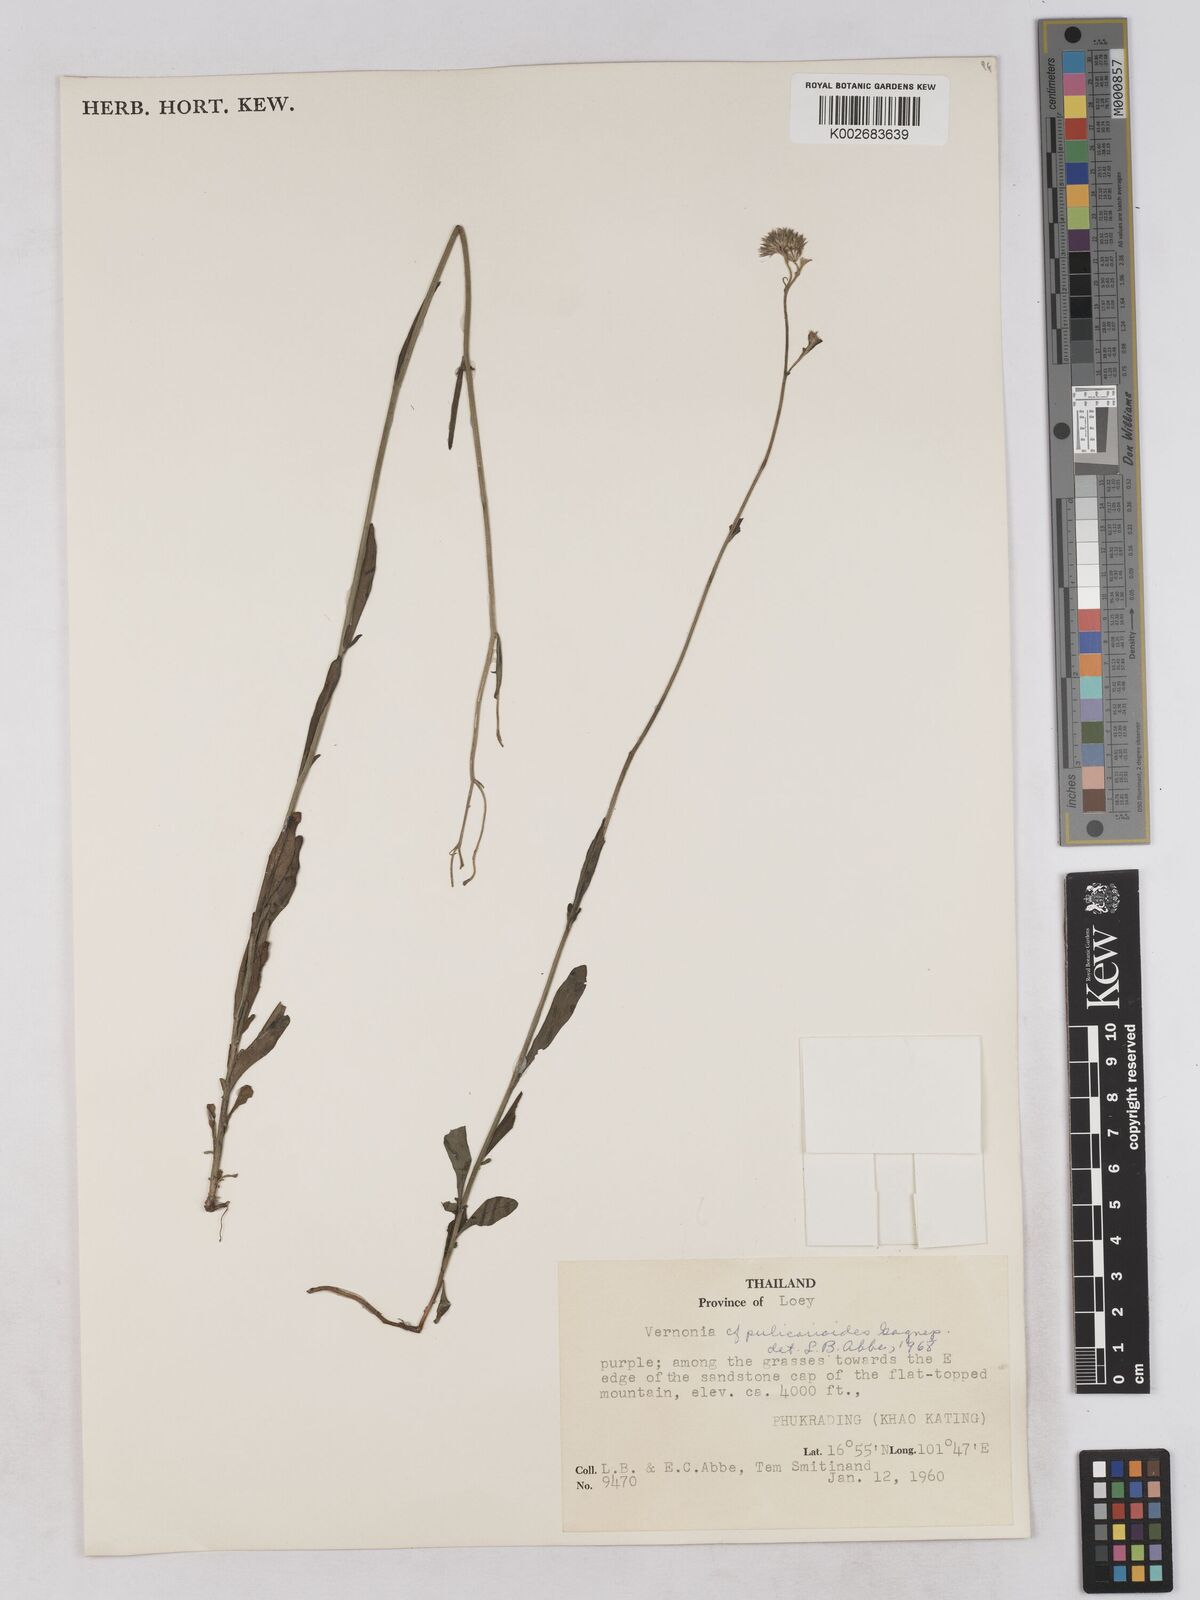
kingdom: Plantae
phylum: Tracheophyta
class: Magnoliopsida
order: Asterales
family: Asteraceae
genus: Pulicarioidea
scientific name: Pulicarioidea annamica
